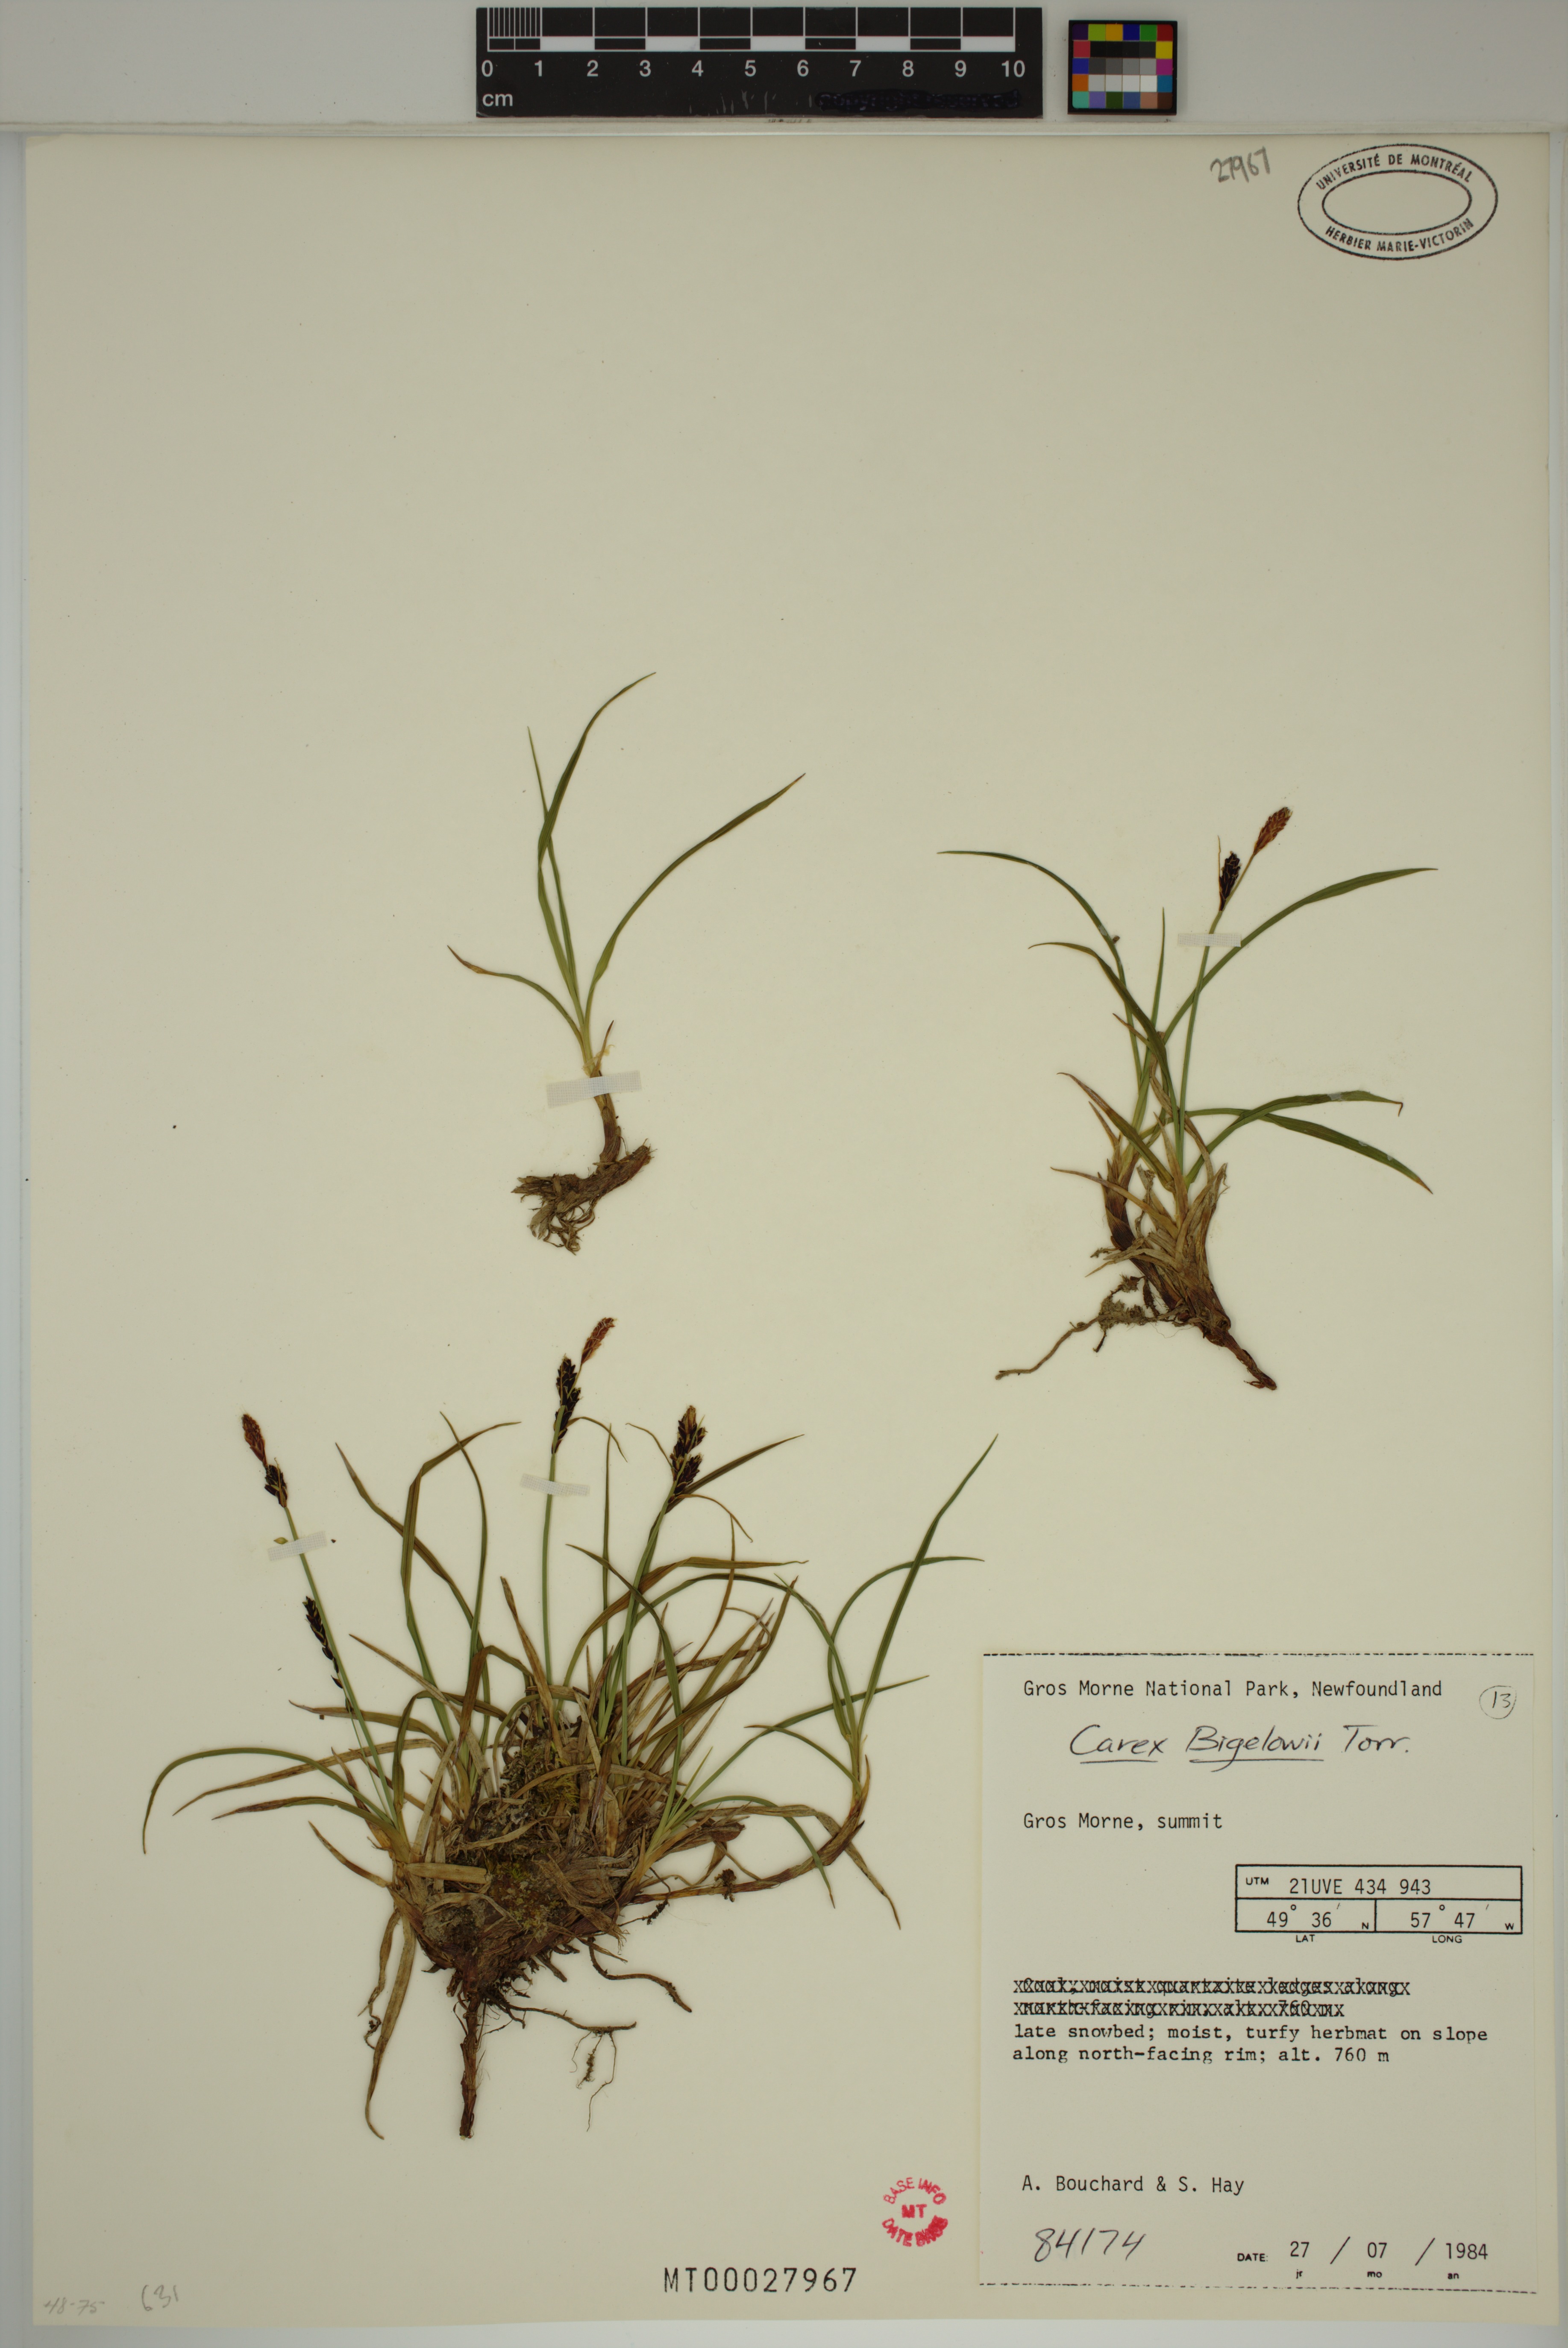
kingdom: Plantae
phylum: Tracheophyta
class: Liliopsida
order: Poales
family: Cyperaceae
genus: Carex
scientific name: Carex bigelowii
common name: Stiff sedge
